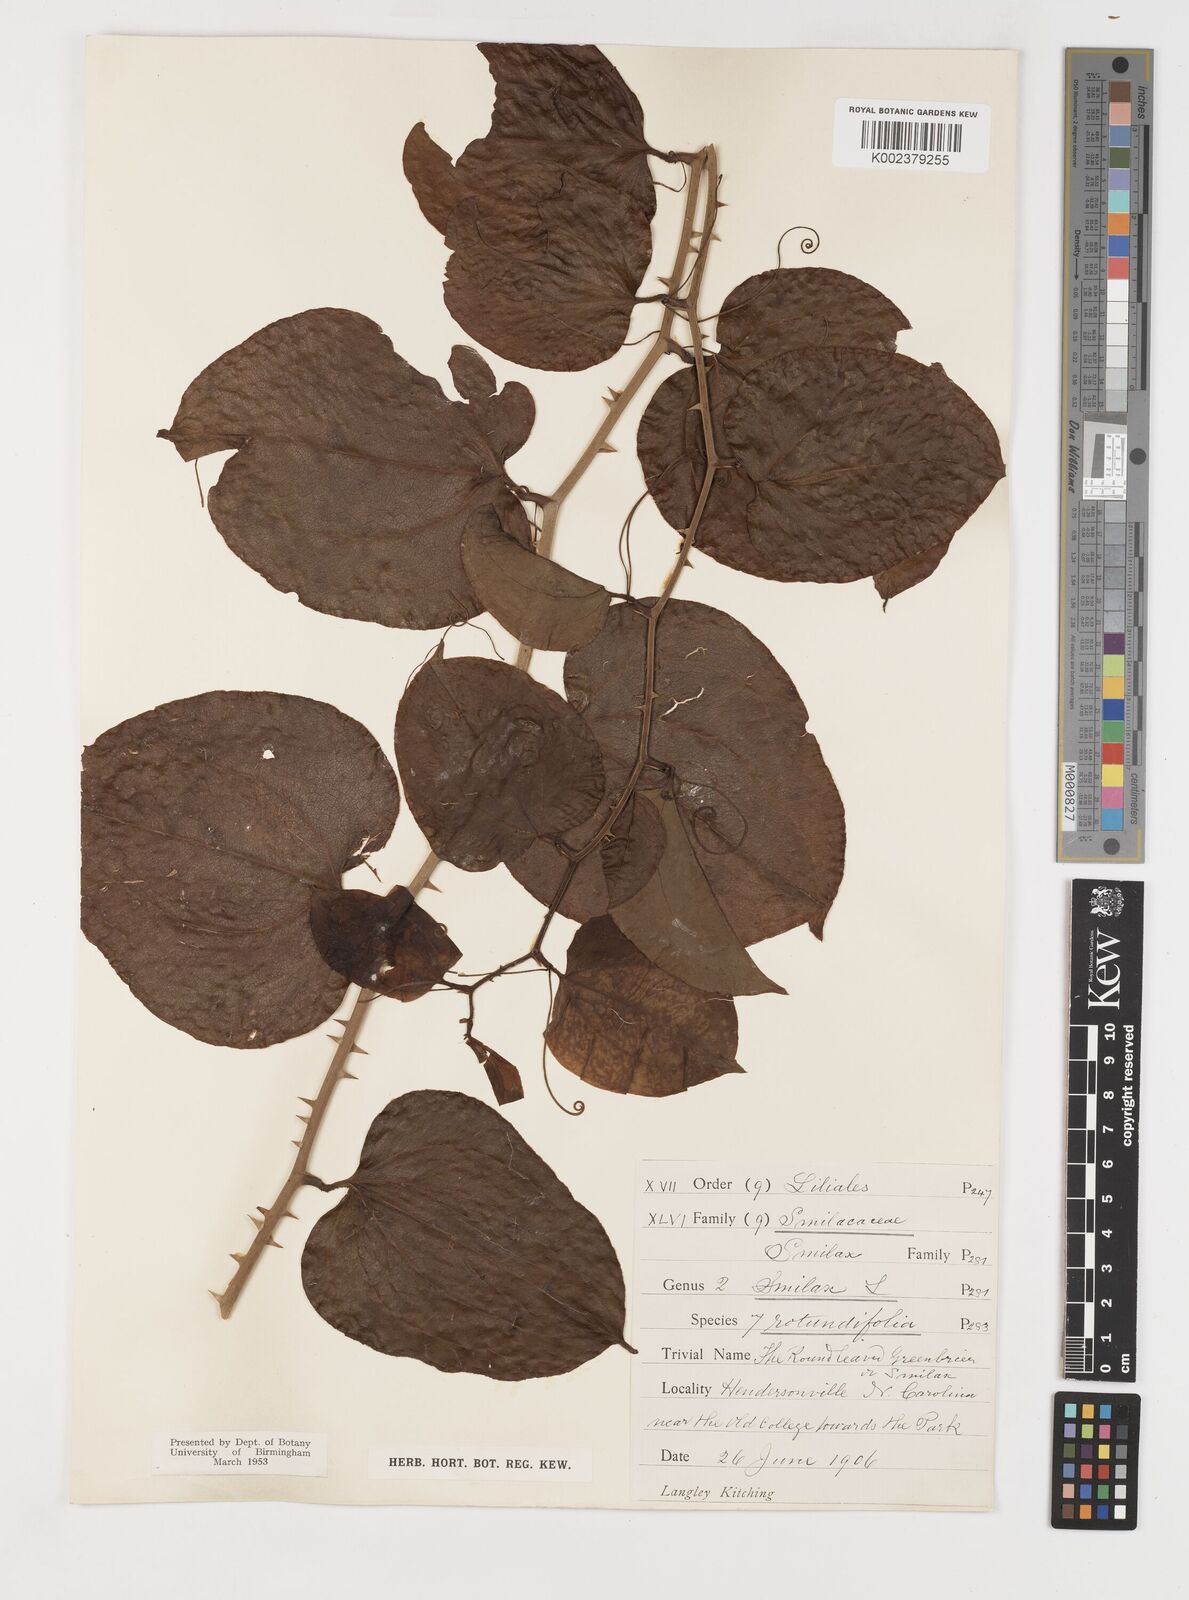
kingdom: Plantae
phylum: Tracheophyta
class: Liliopsida
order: Liliales
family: Smilacaceae
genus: Smilax
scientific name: Smilax rotundifolia
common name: Bullbriar
